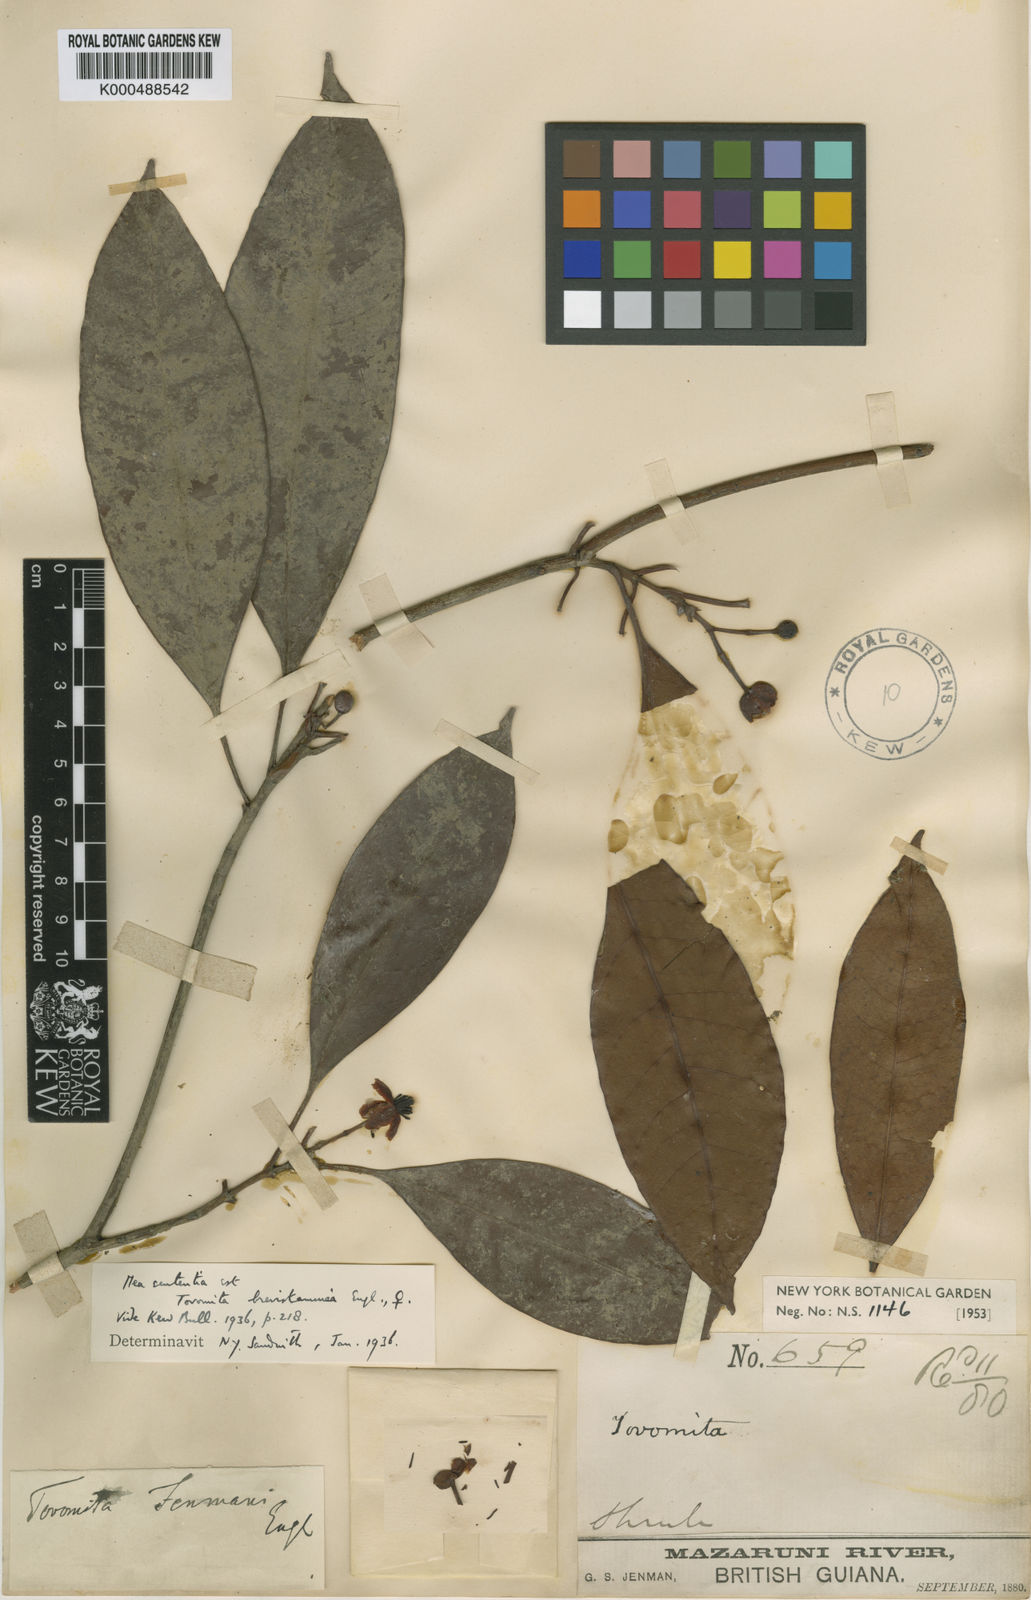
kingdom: Plantae
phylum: Tracheophyta
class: Magnoliopsida
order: Malpighiales
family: Clusiaceae
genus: Tovomita
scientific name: Tovomita brevistaminea
